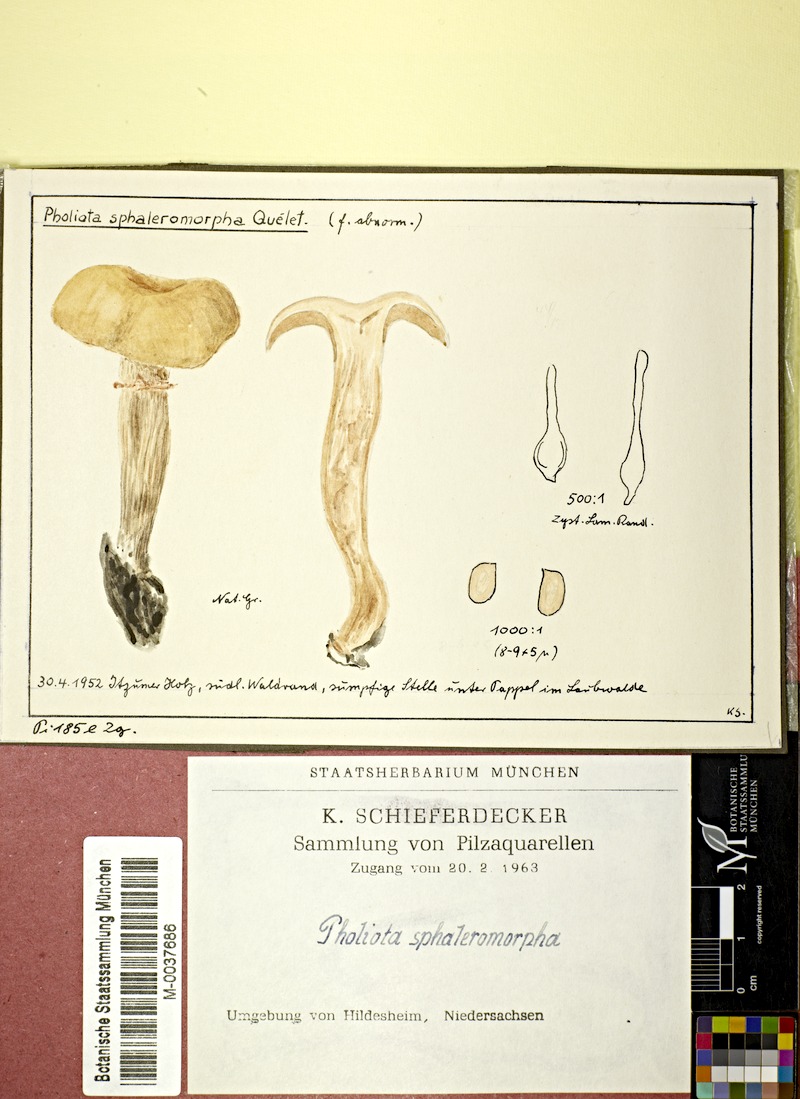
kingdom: Fungi
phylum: Basidiomycota
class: Agaricomycetes
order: Agaricales
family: Strophariaceae
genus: Agrocybe
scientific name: Agrocybe praecox
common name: Spring fieldcap
